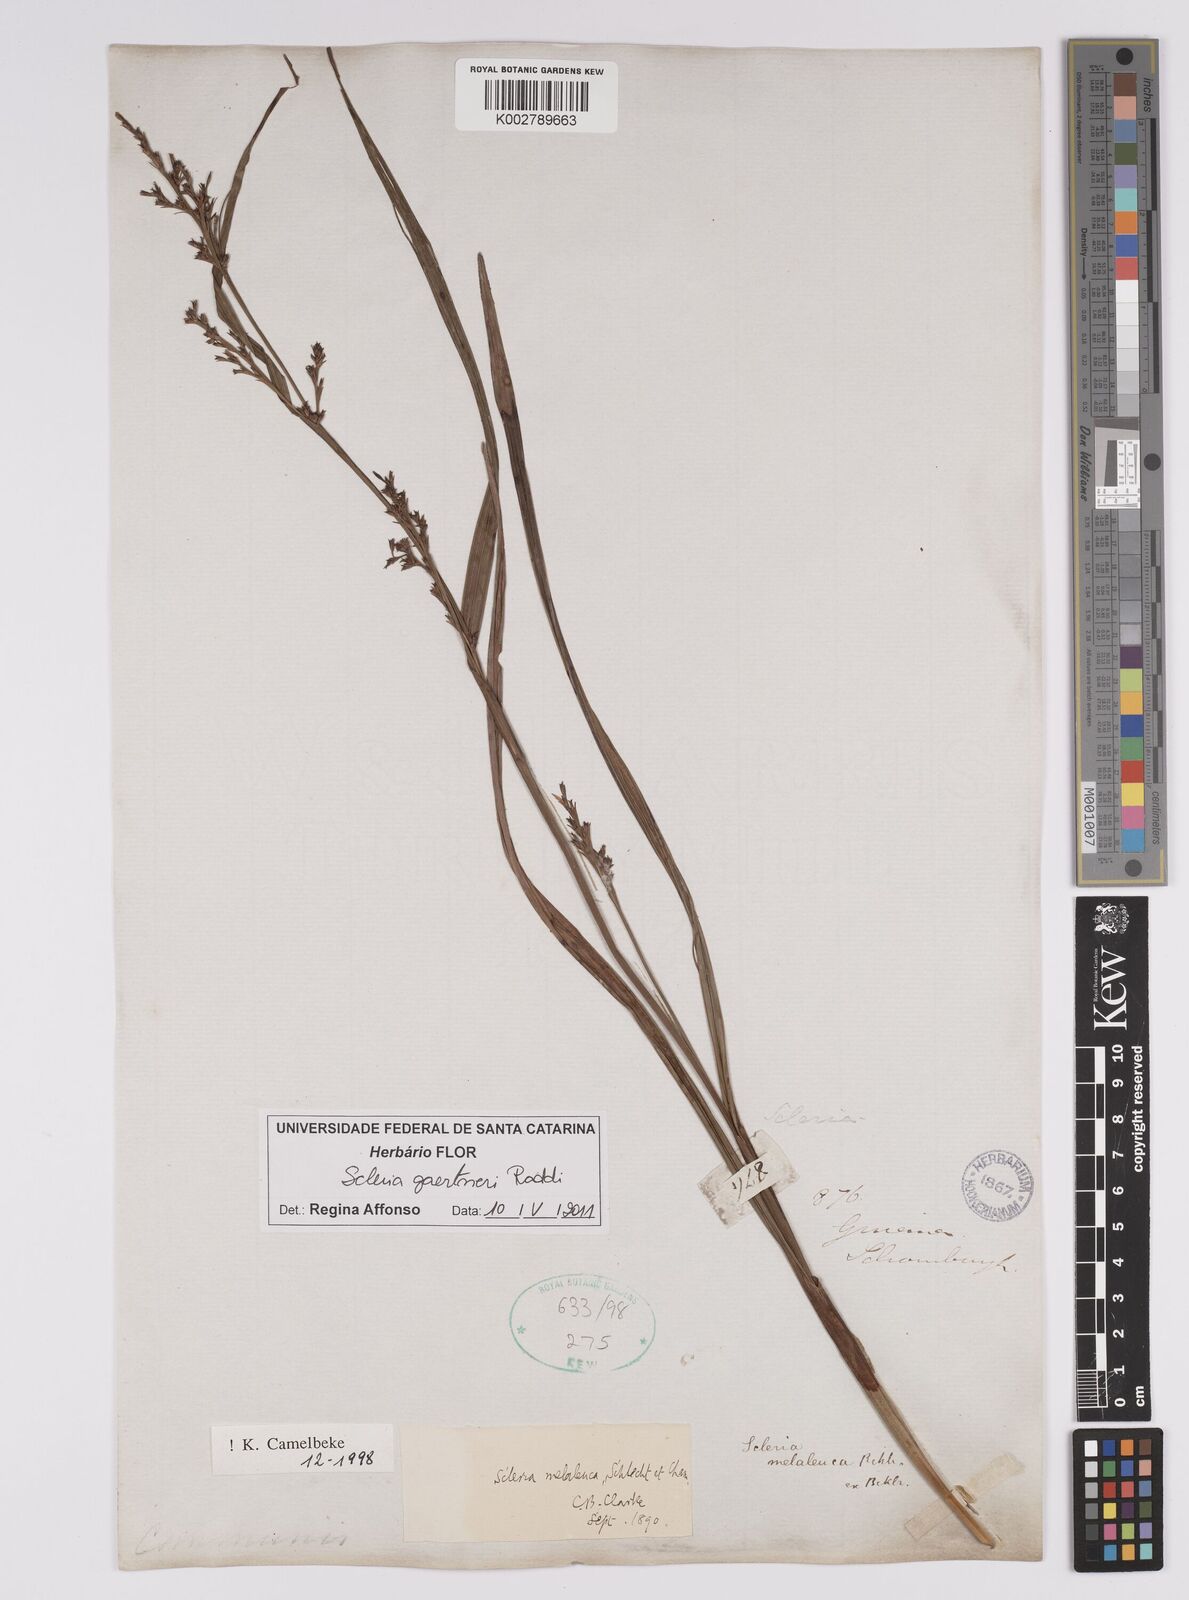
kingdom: Plantae
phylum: Tracheophyta
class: Liliopsida
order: Poales
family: Cyperaceae
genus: Scleria
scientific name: Scleria gaertneri
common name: Cortadera blanca
